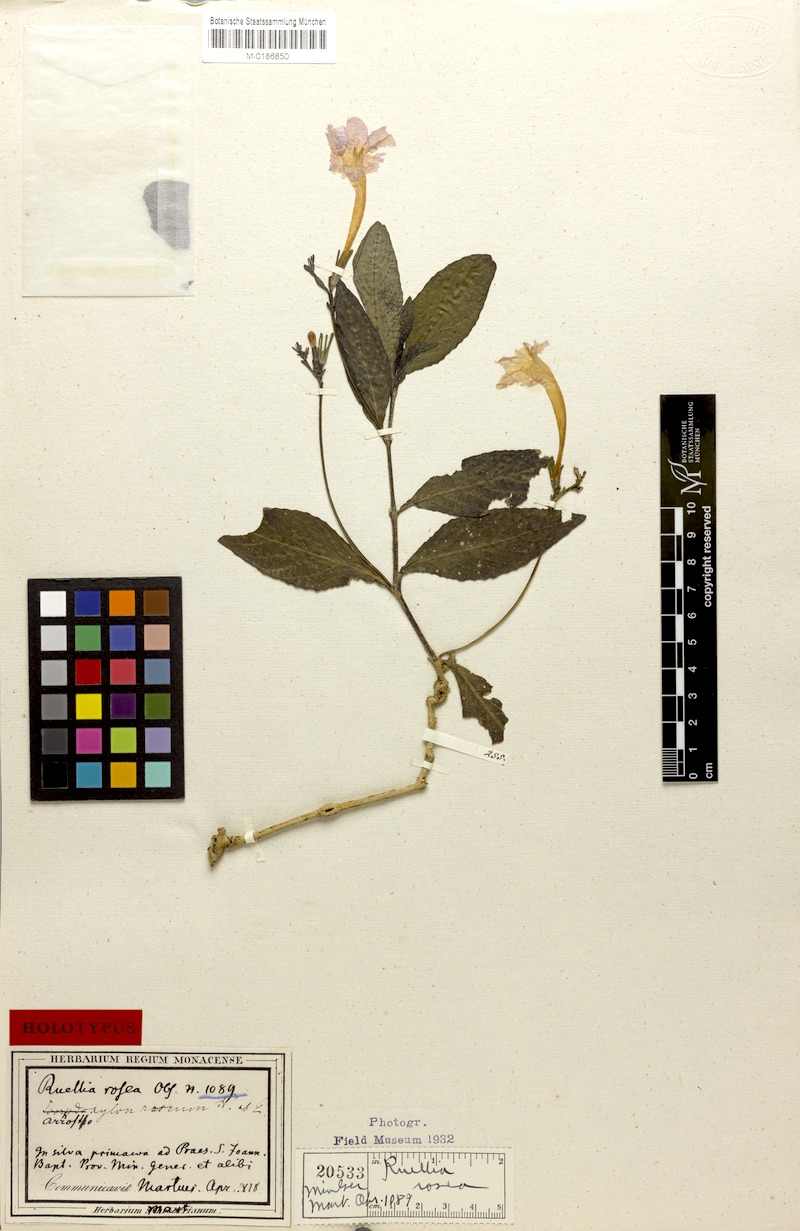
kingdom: Plantae
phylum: Tracheophyta
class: Magnoliopsida
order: Lamiales
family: Acanthaceae
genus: Ruellia
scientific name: Ruellia hirsutoglandulosa
